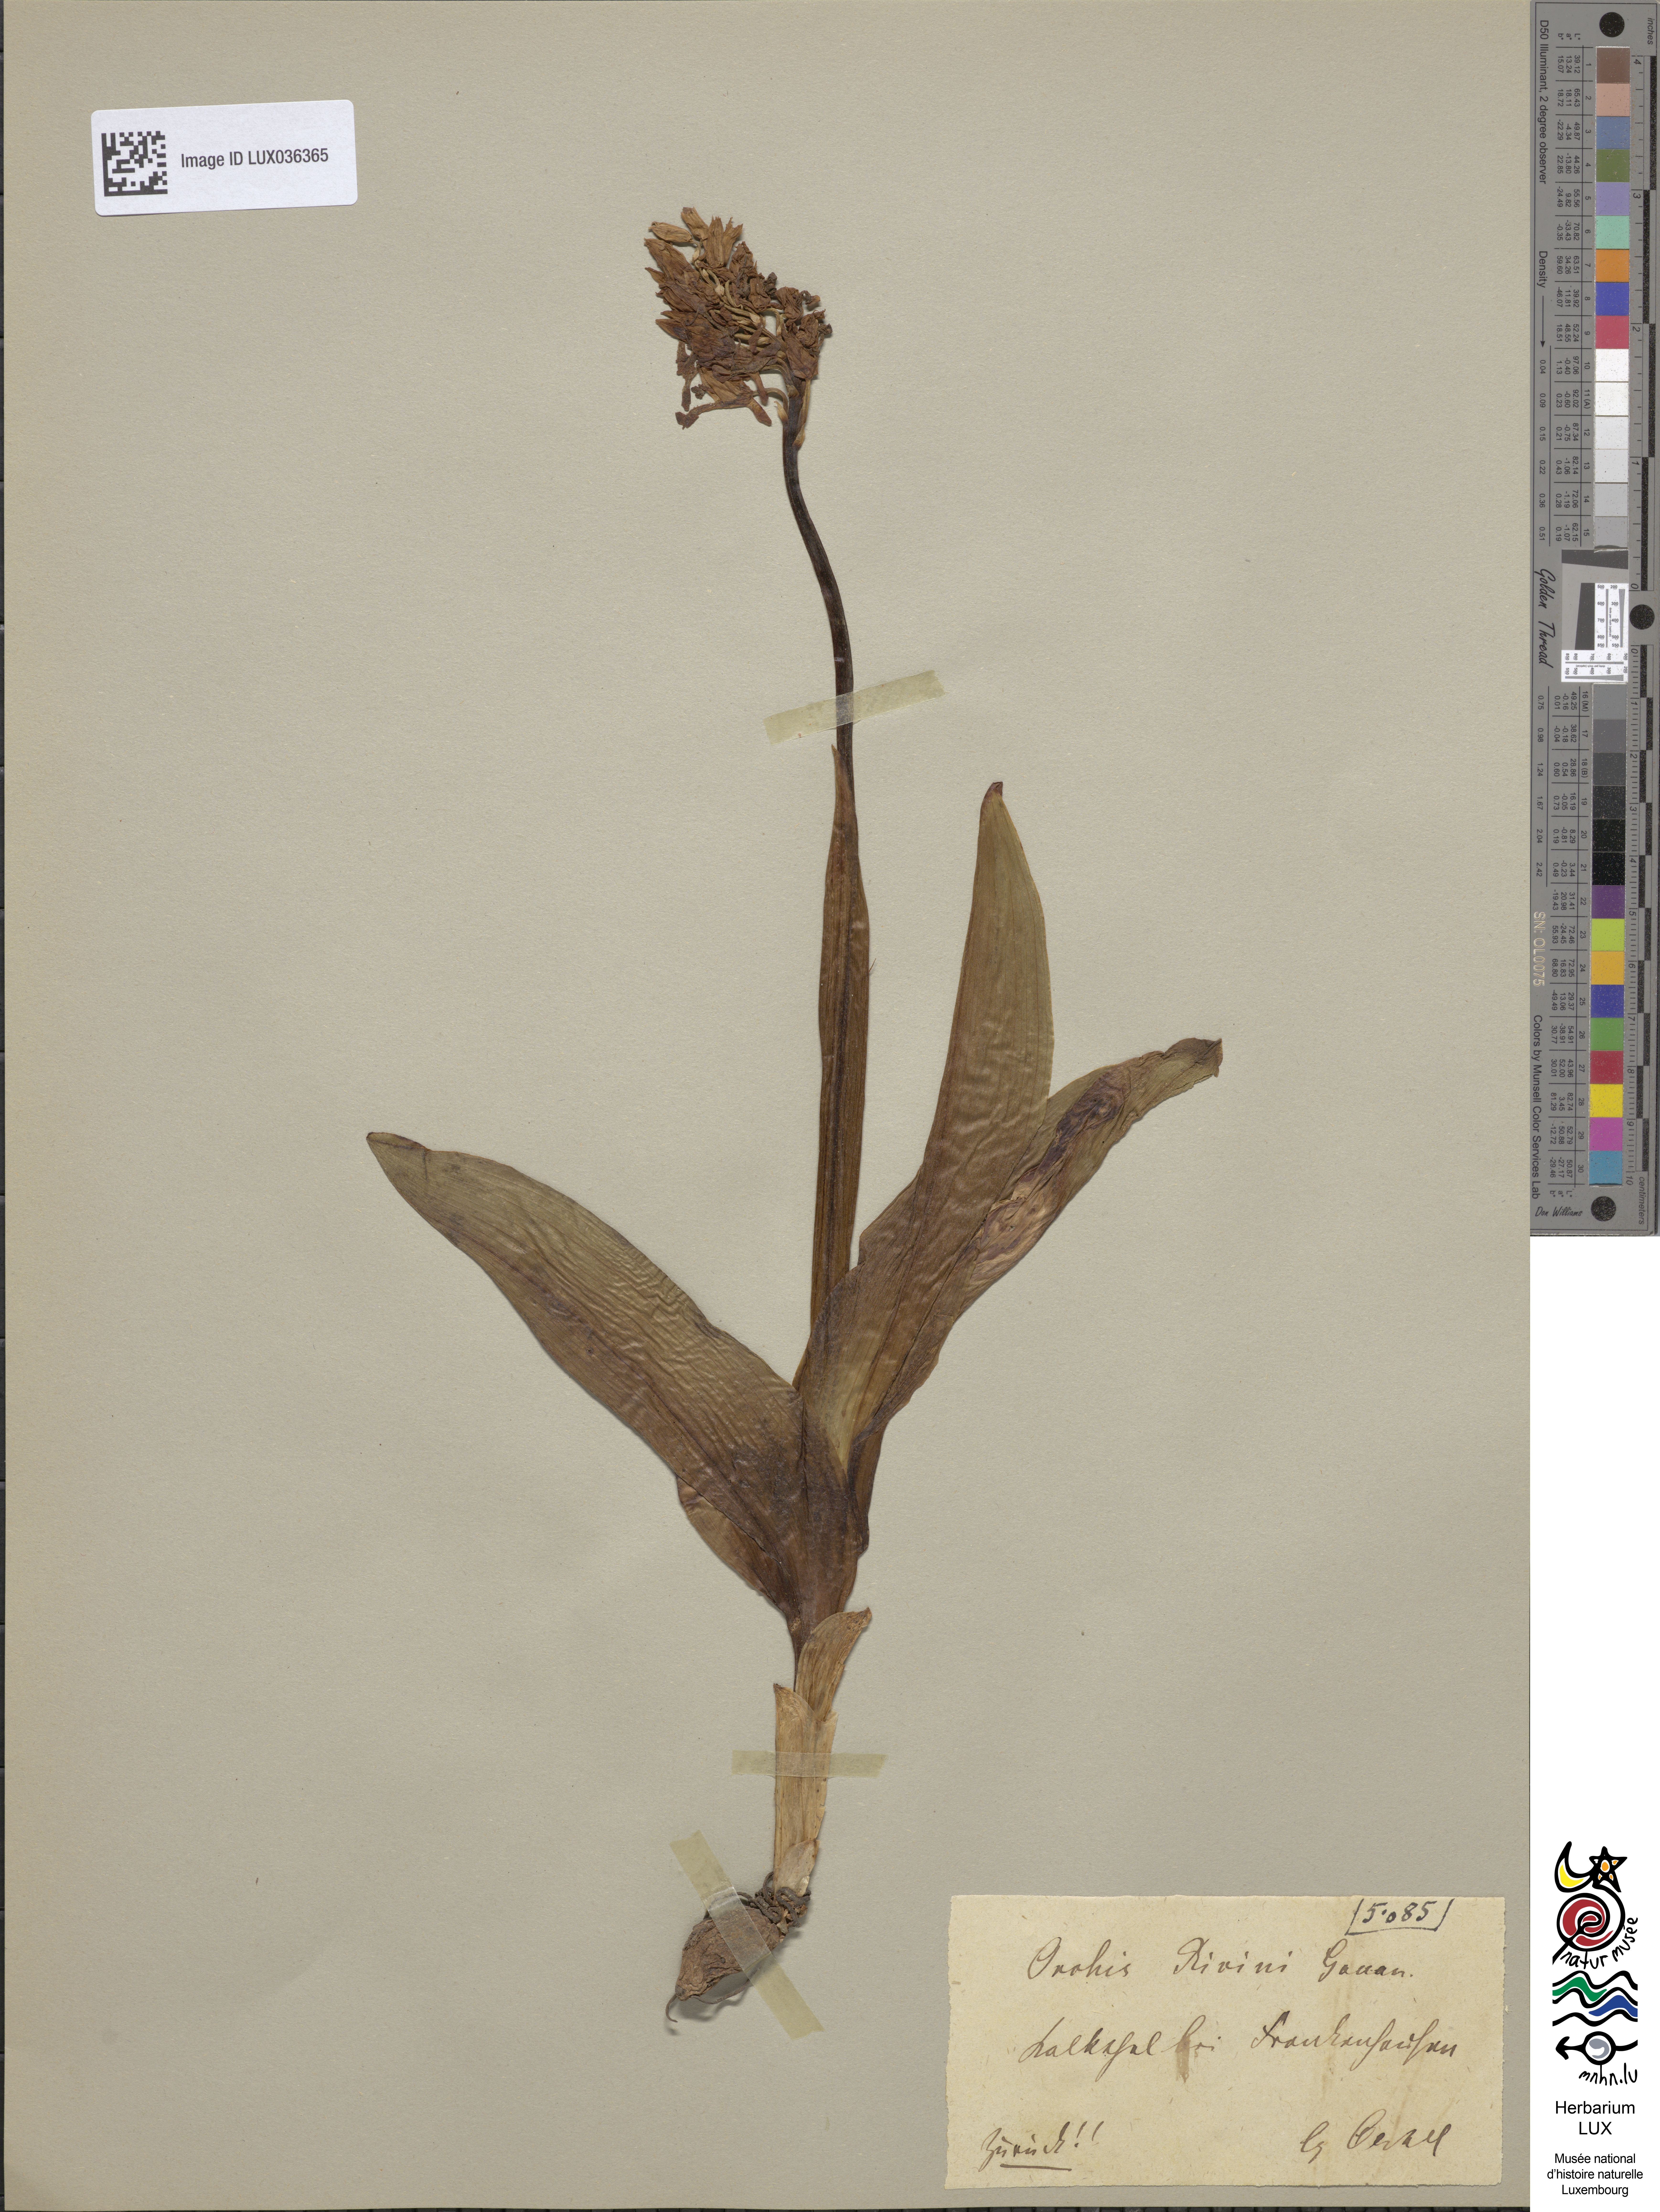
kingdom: Plantae
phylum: Tracheophyta
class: Liliopsida
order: Asparagales
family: Orchidaceae
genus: Orchis
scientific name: Orchis militaris
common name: Military orchid
